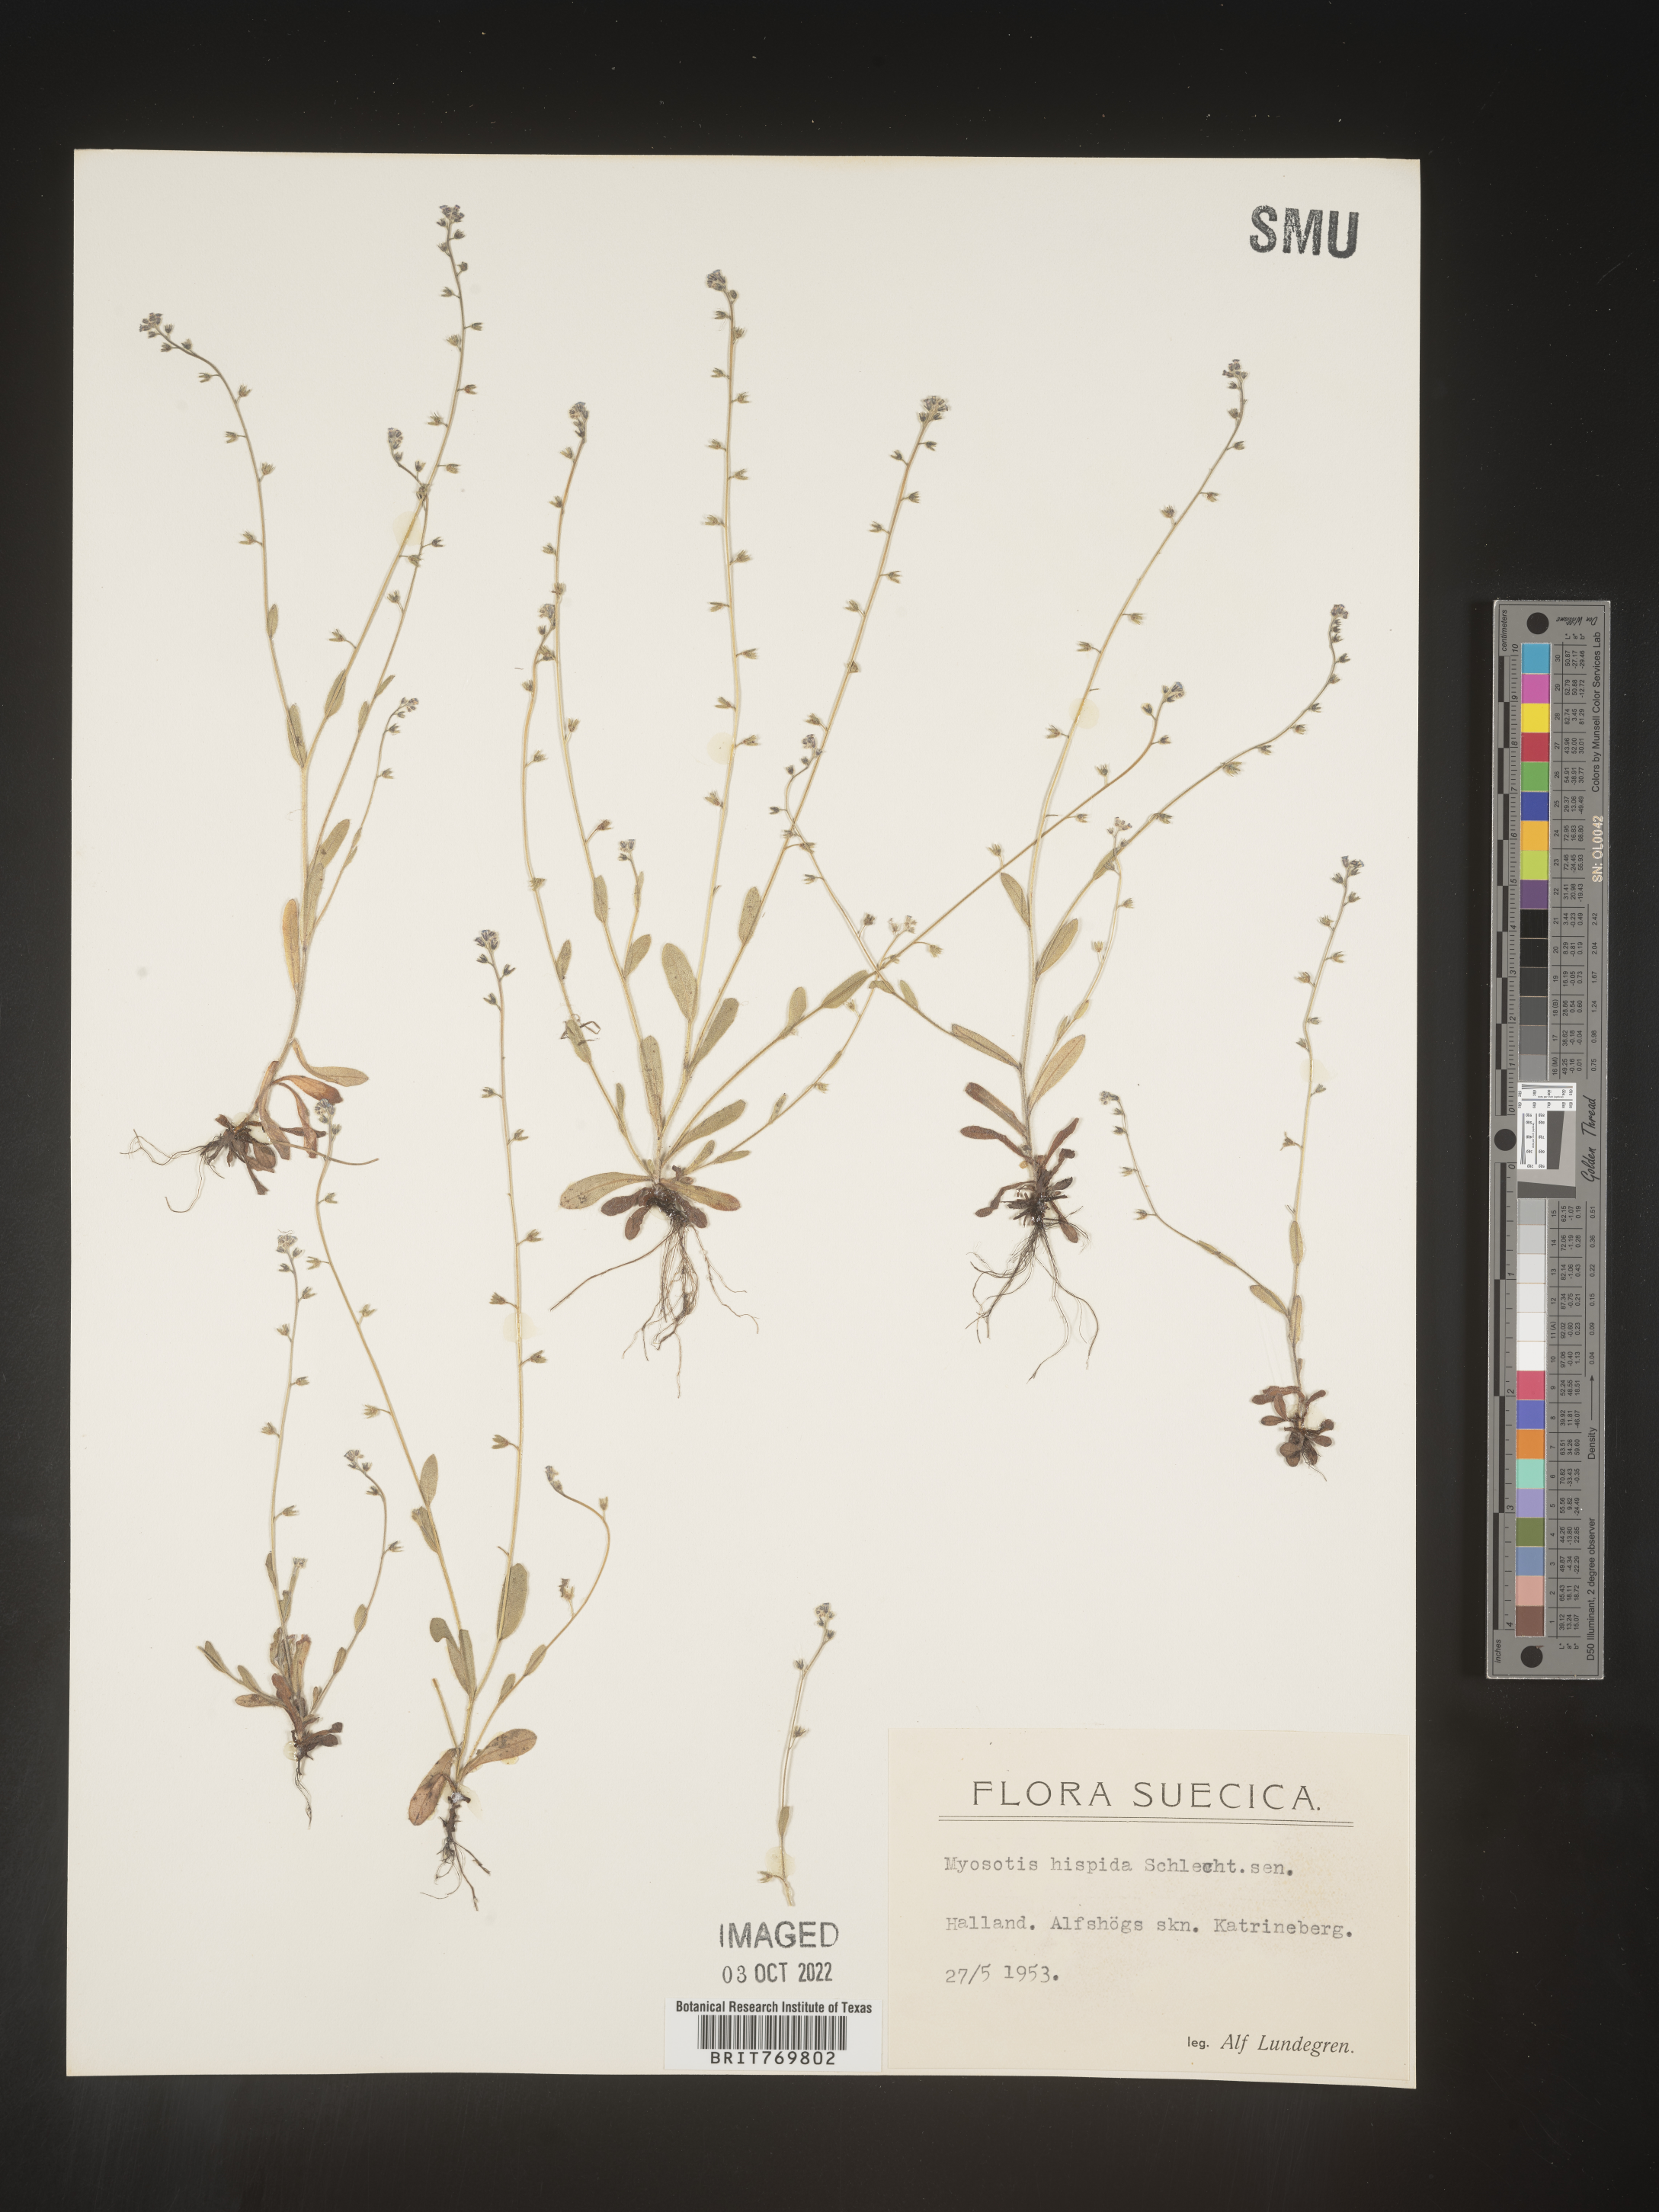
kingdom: Plantae
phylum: Tracheophyta
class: Magnoliopsida
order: Boraginales
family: Boraginaceae
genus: Myosotis
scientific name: Myosotis
